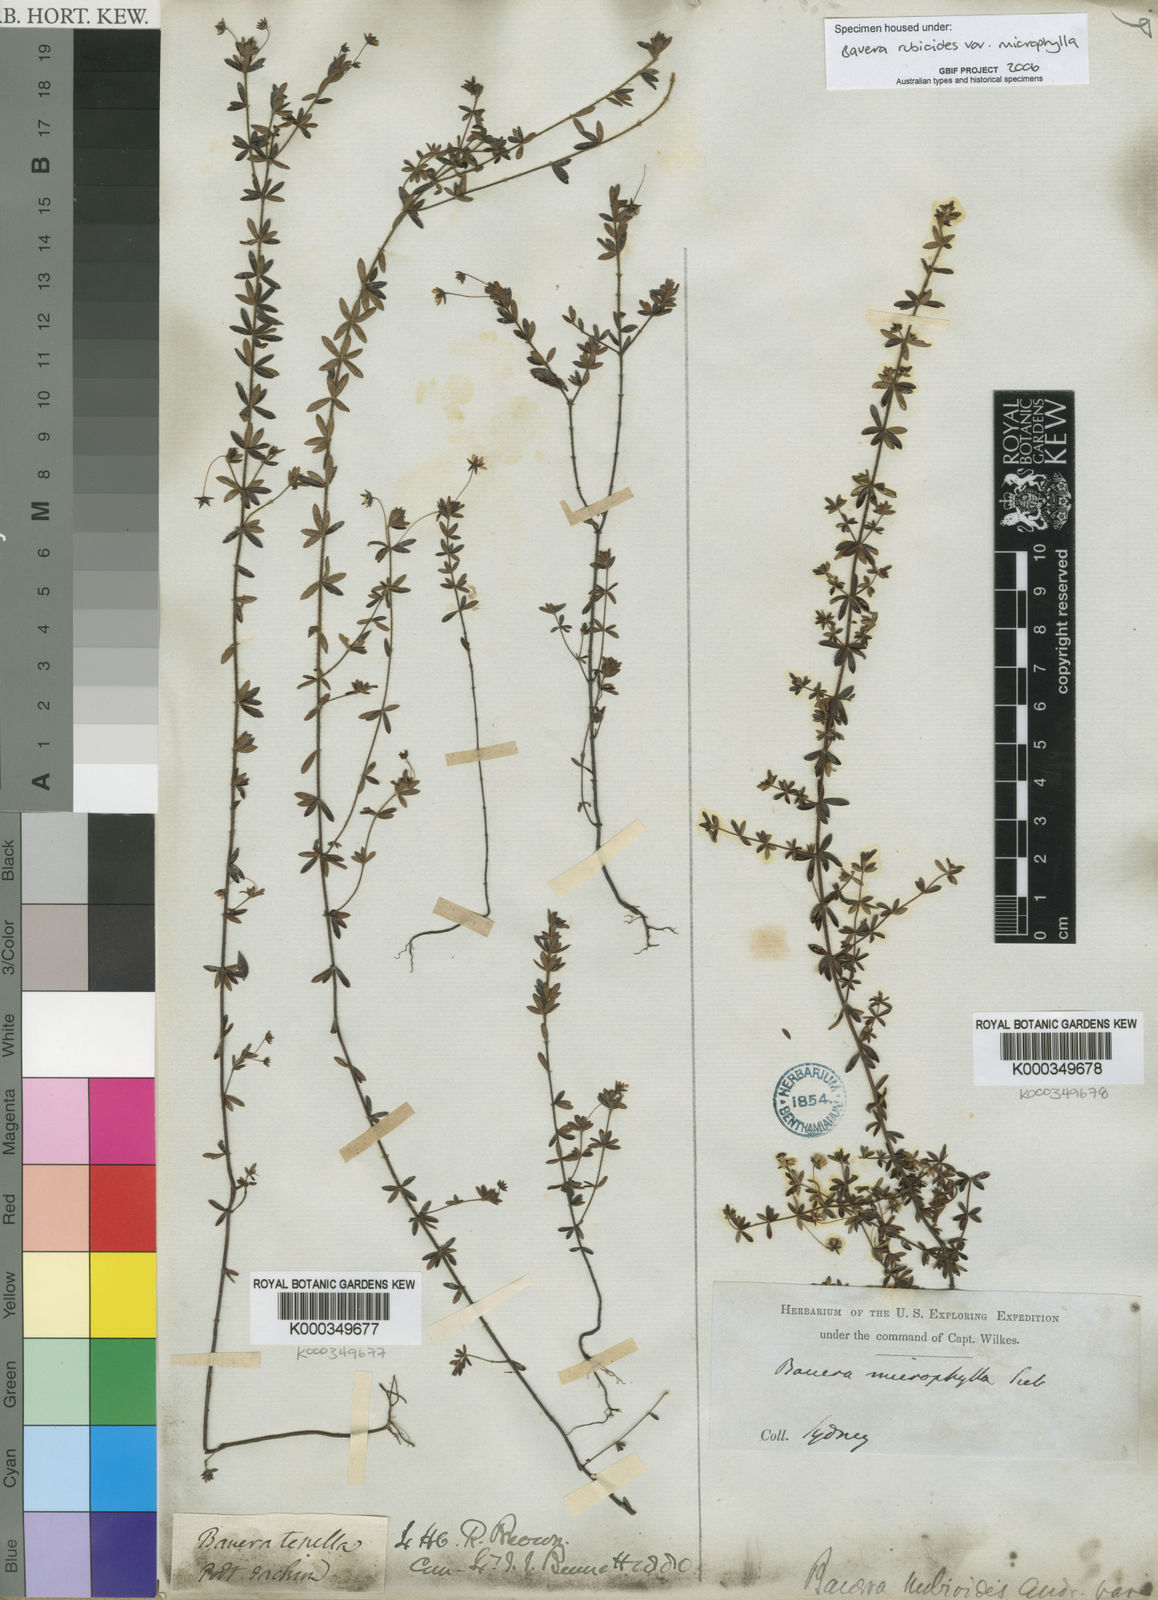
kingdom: Plantae
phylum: Tracheophyta
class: Magnoliopsida
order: Oxalidales
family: Cunoniaceae
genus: Bauera
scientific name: Bauera rubioides
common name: River-rose
